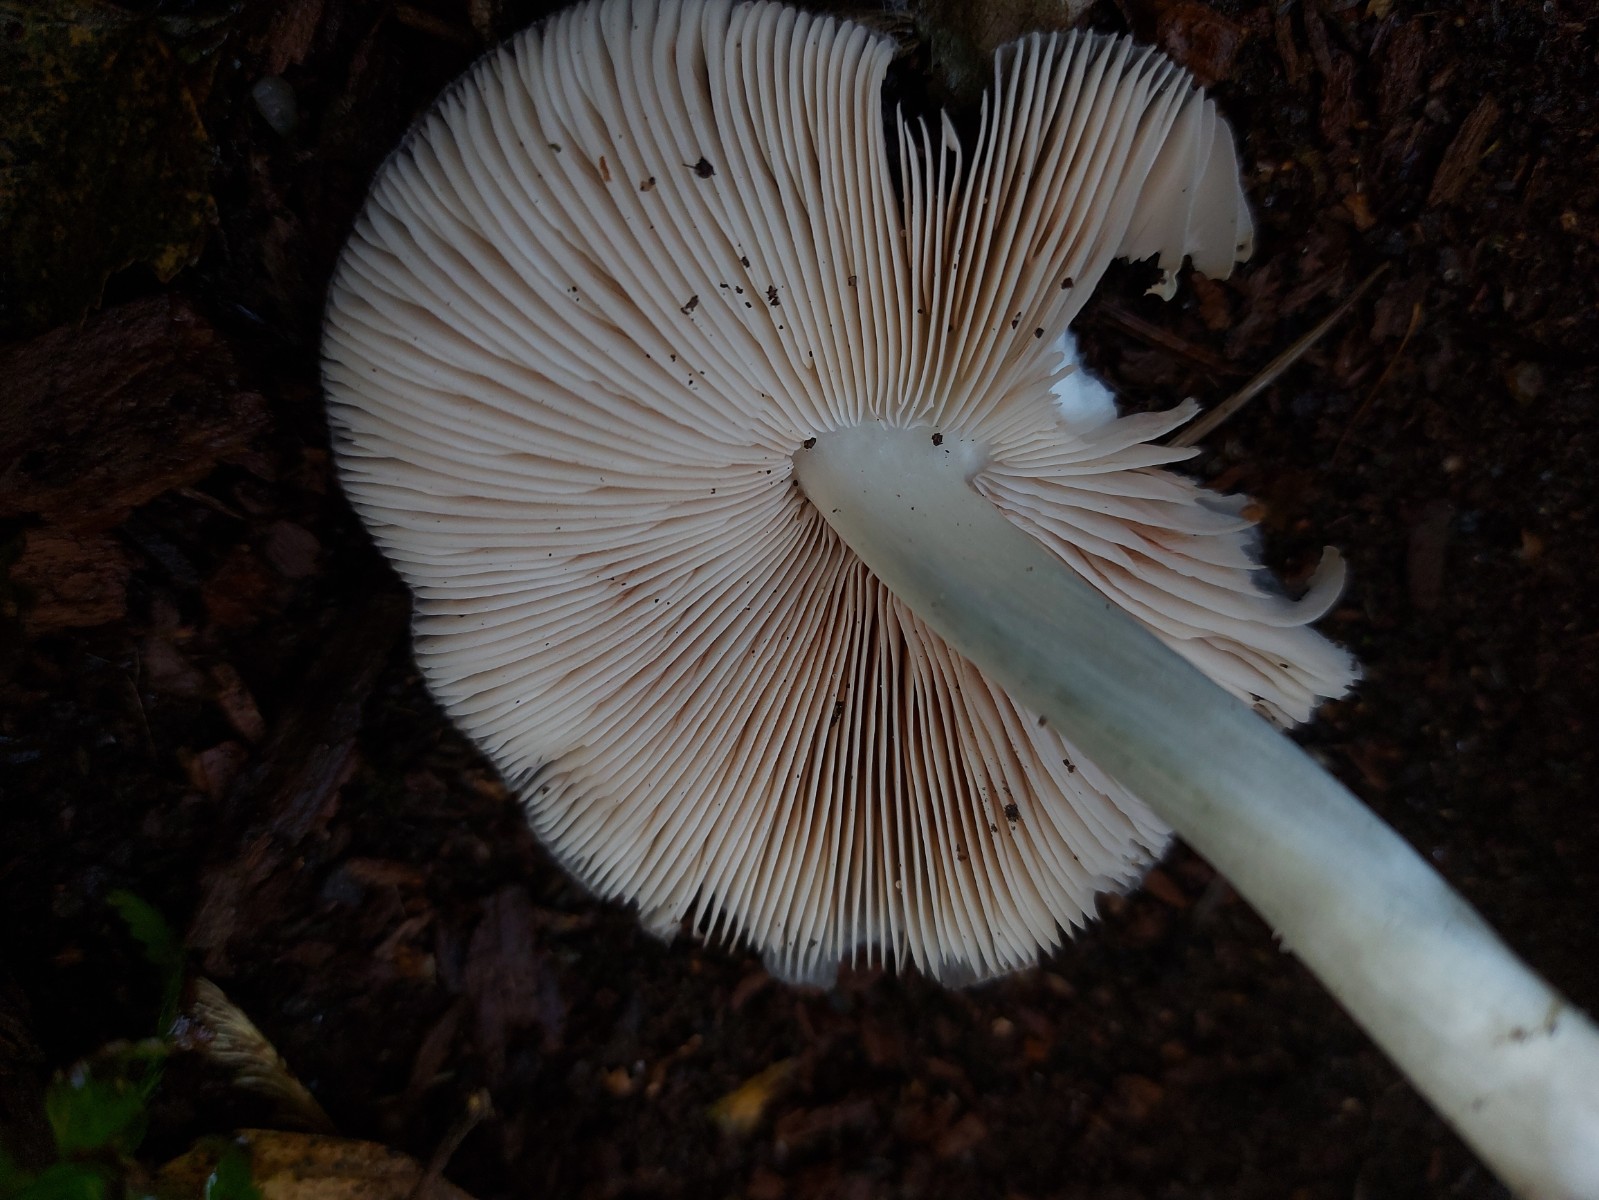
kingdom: Fungi
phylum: Basidiomycota
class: Agaricomycetes
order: Agaricales
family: Pluteaceae
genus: Pluteus
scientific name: Pluteus salicinus
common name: stiv skærmhat
